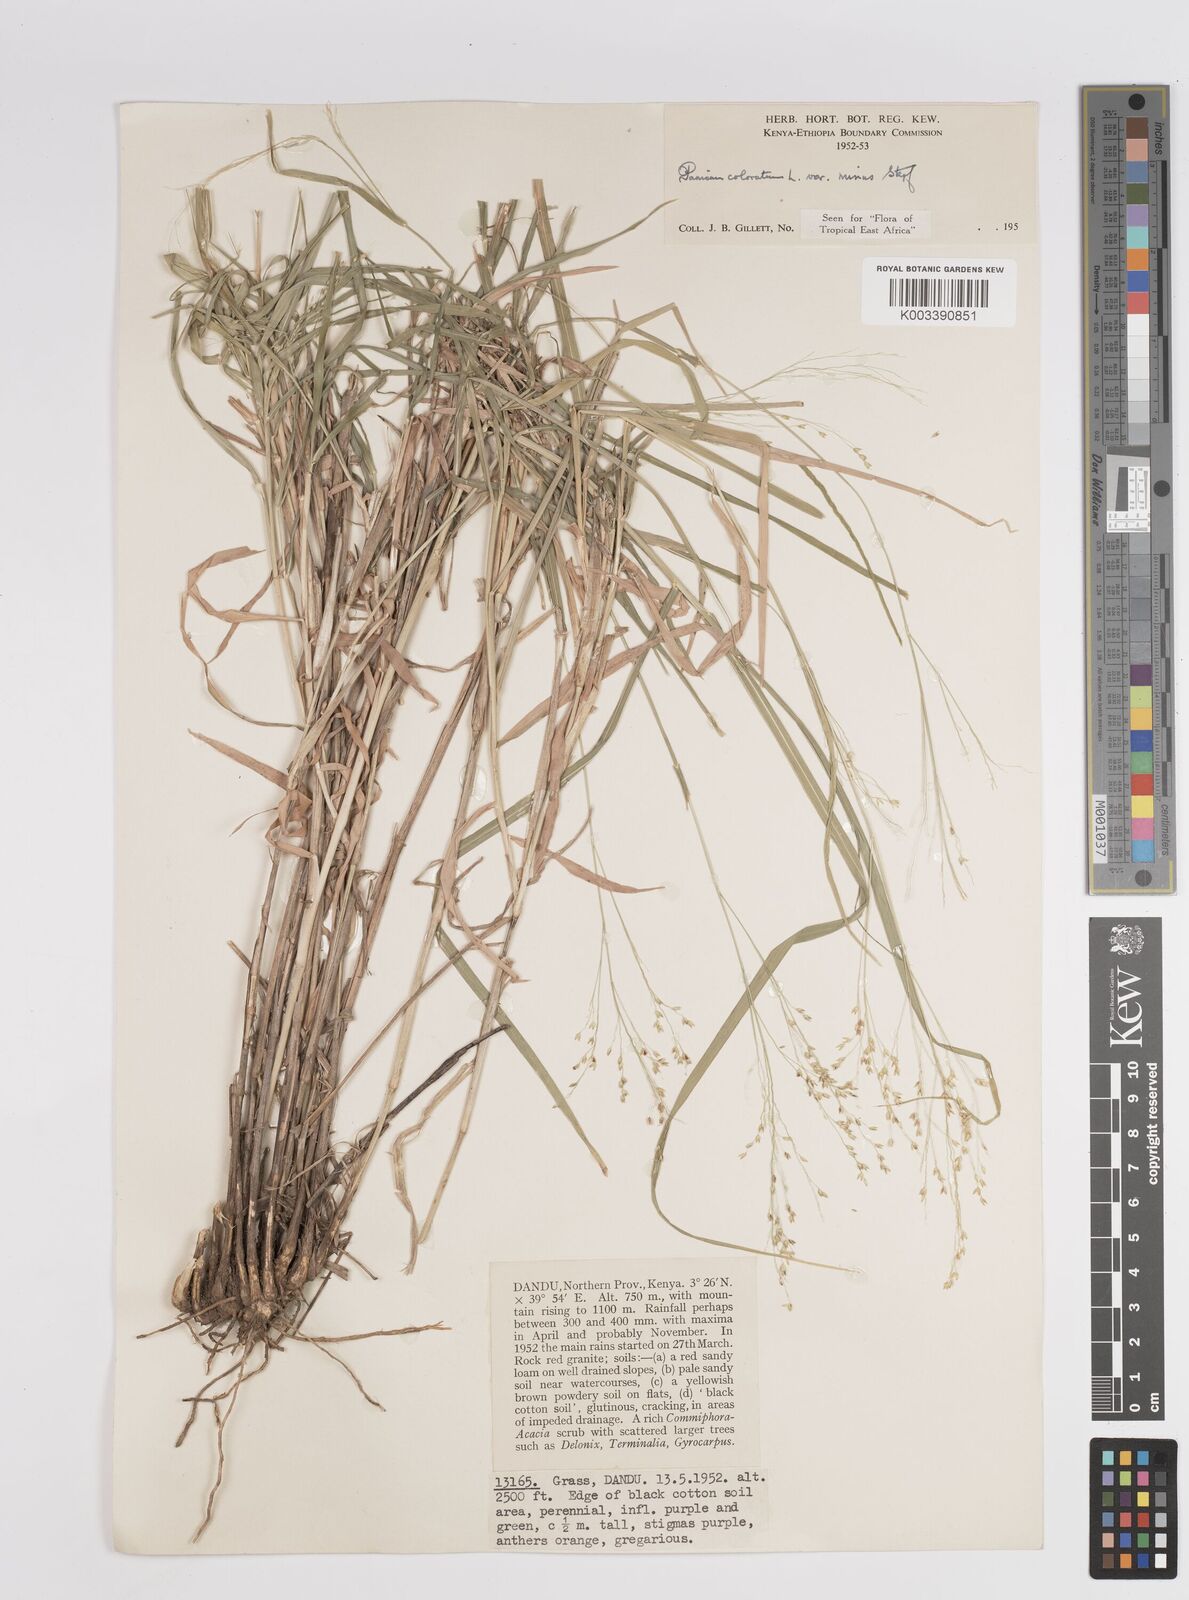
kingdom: Plantae
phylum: Tracheophyta
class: Liliopsida
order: Poales
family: Poaceae
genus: Panicum
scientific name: Panicum coloratum
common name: Kleingrass
